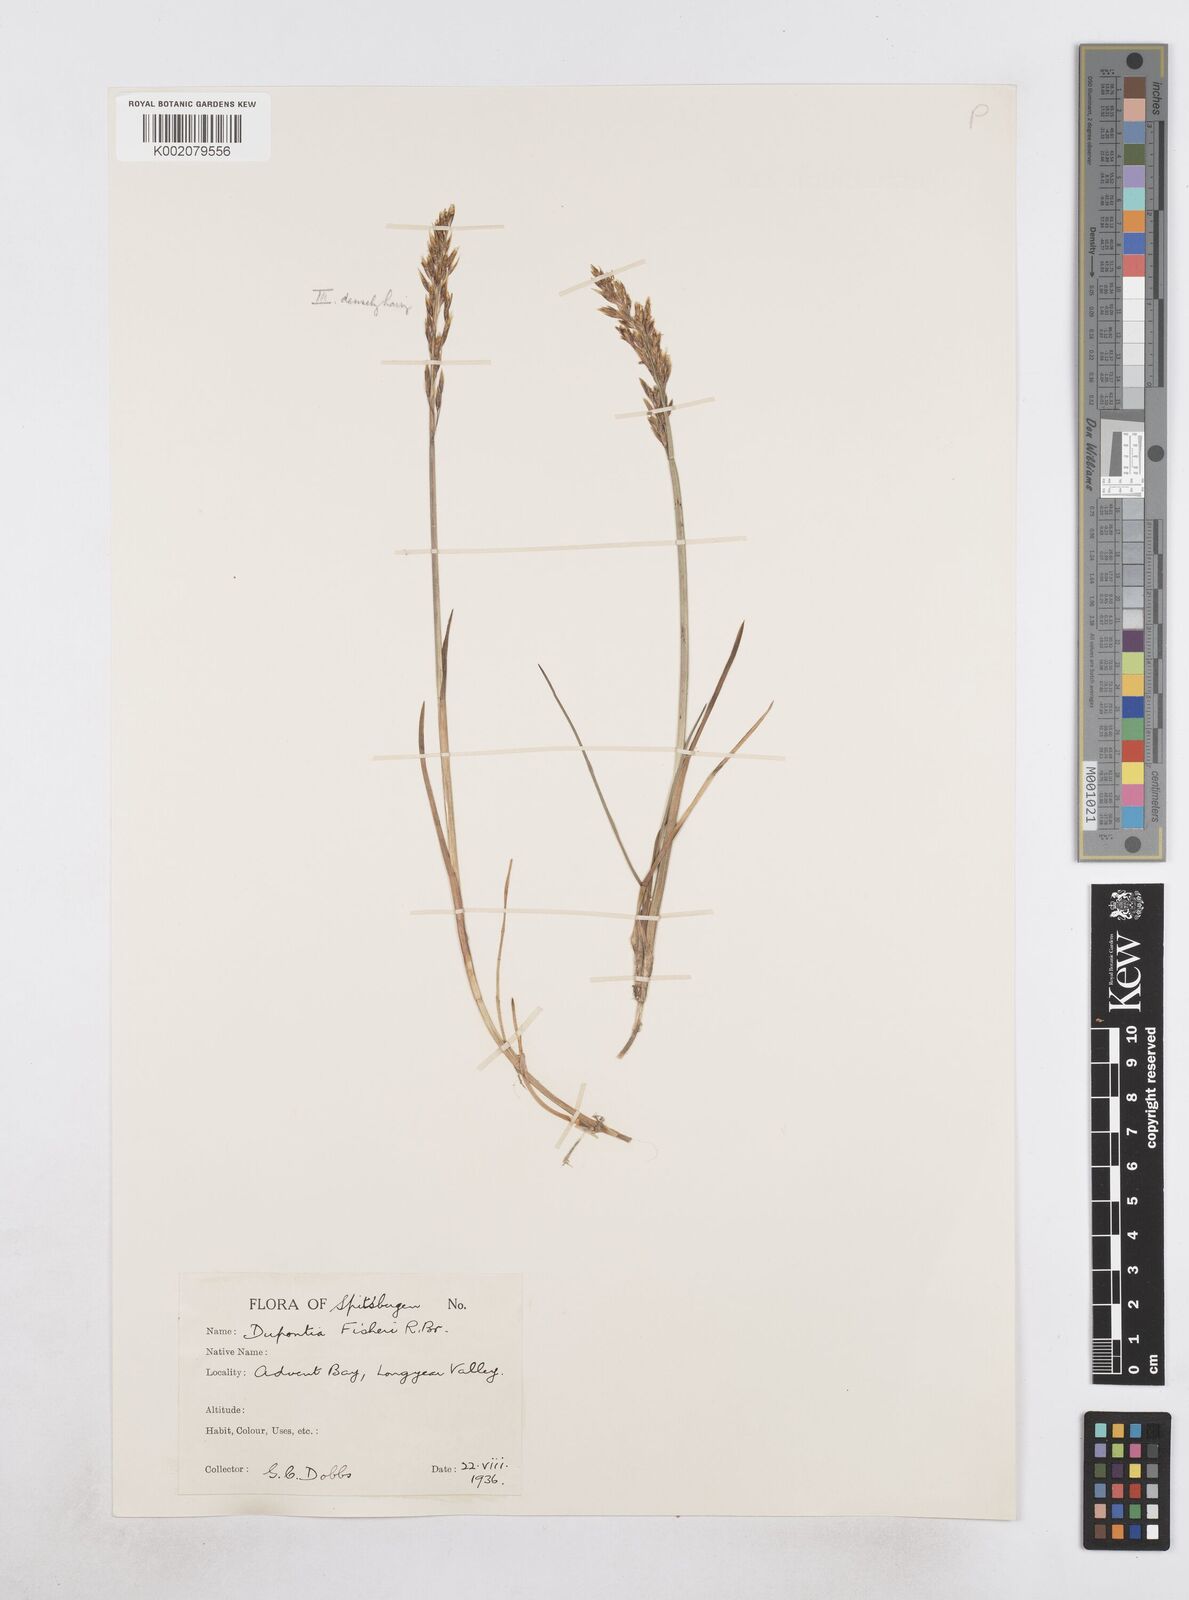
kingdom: Plantae
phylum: Tracheophyta
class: Liliopsida
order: Poales
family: Poaceae
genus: Dupontia
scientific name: Dupontia fisheri
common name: Tundra grass
